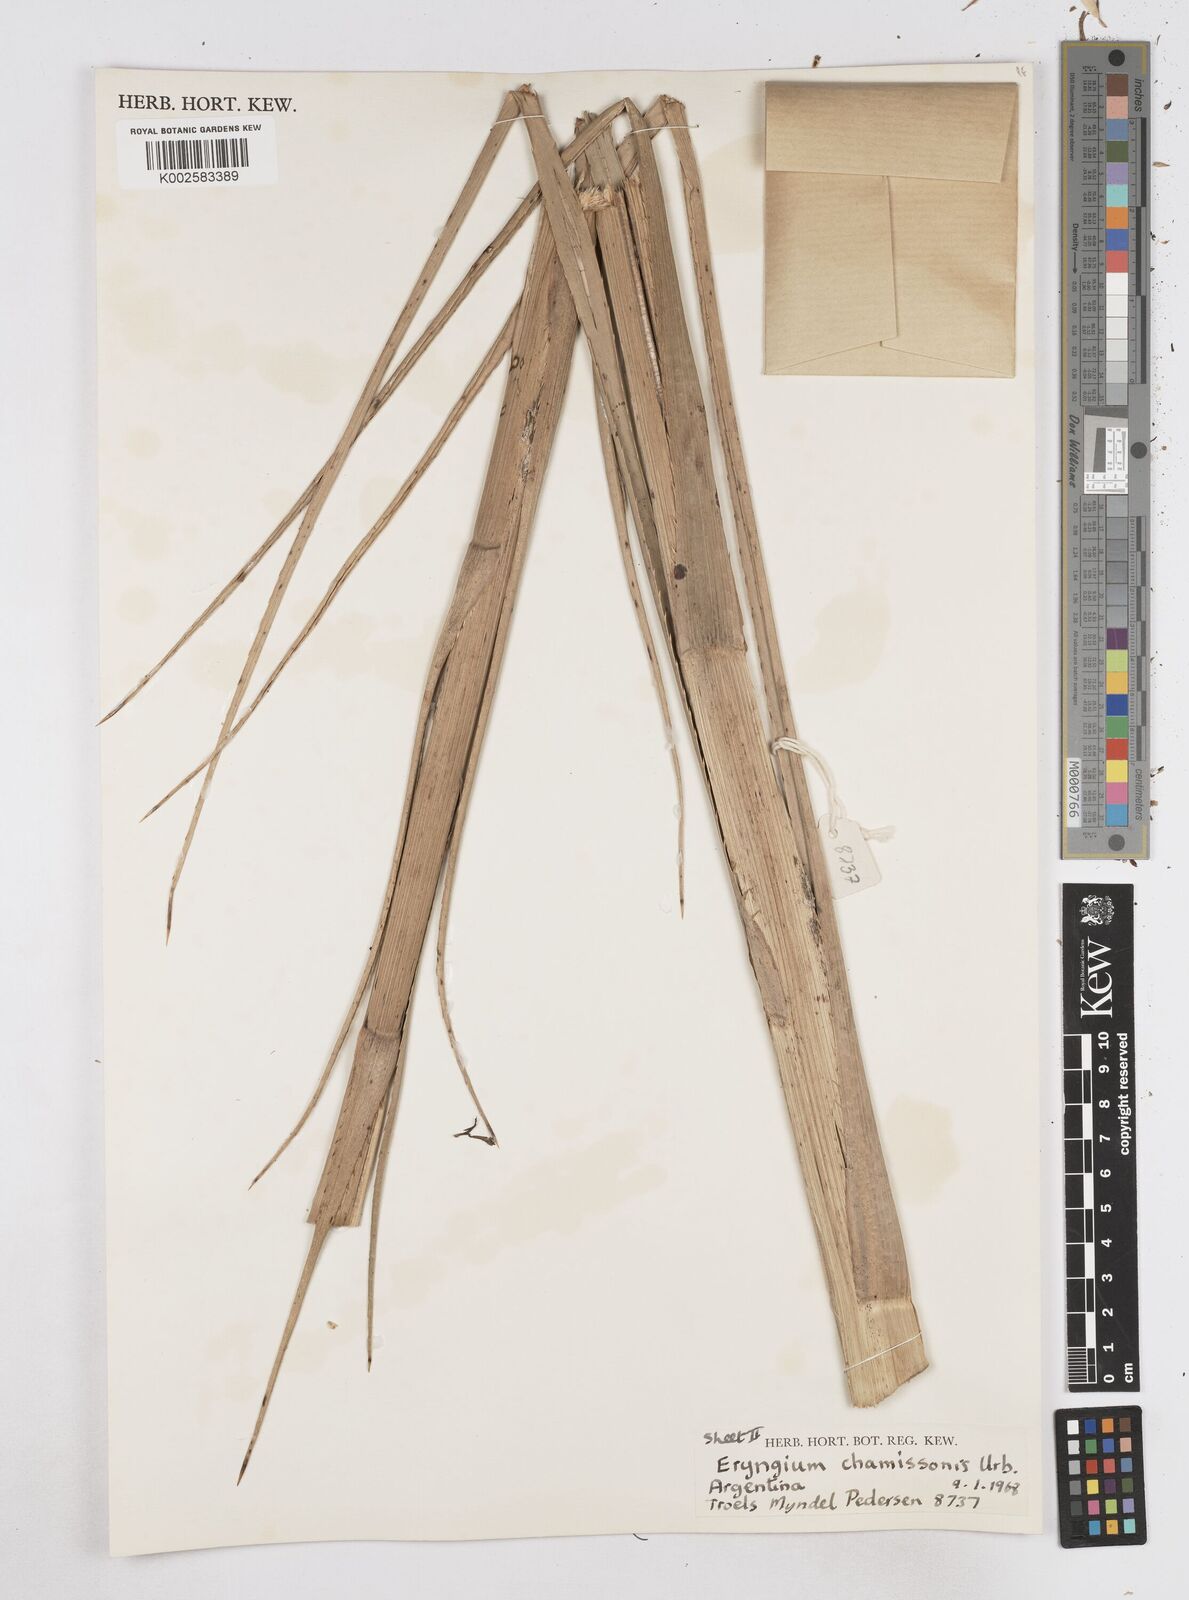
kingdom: Plantae
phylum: Tracheophyta
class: Magnoliopsida
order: Apiales
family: Apiaceae
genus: Eryngium
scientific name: Eryngium chamissonis
